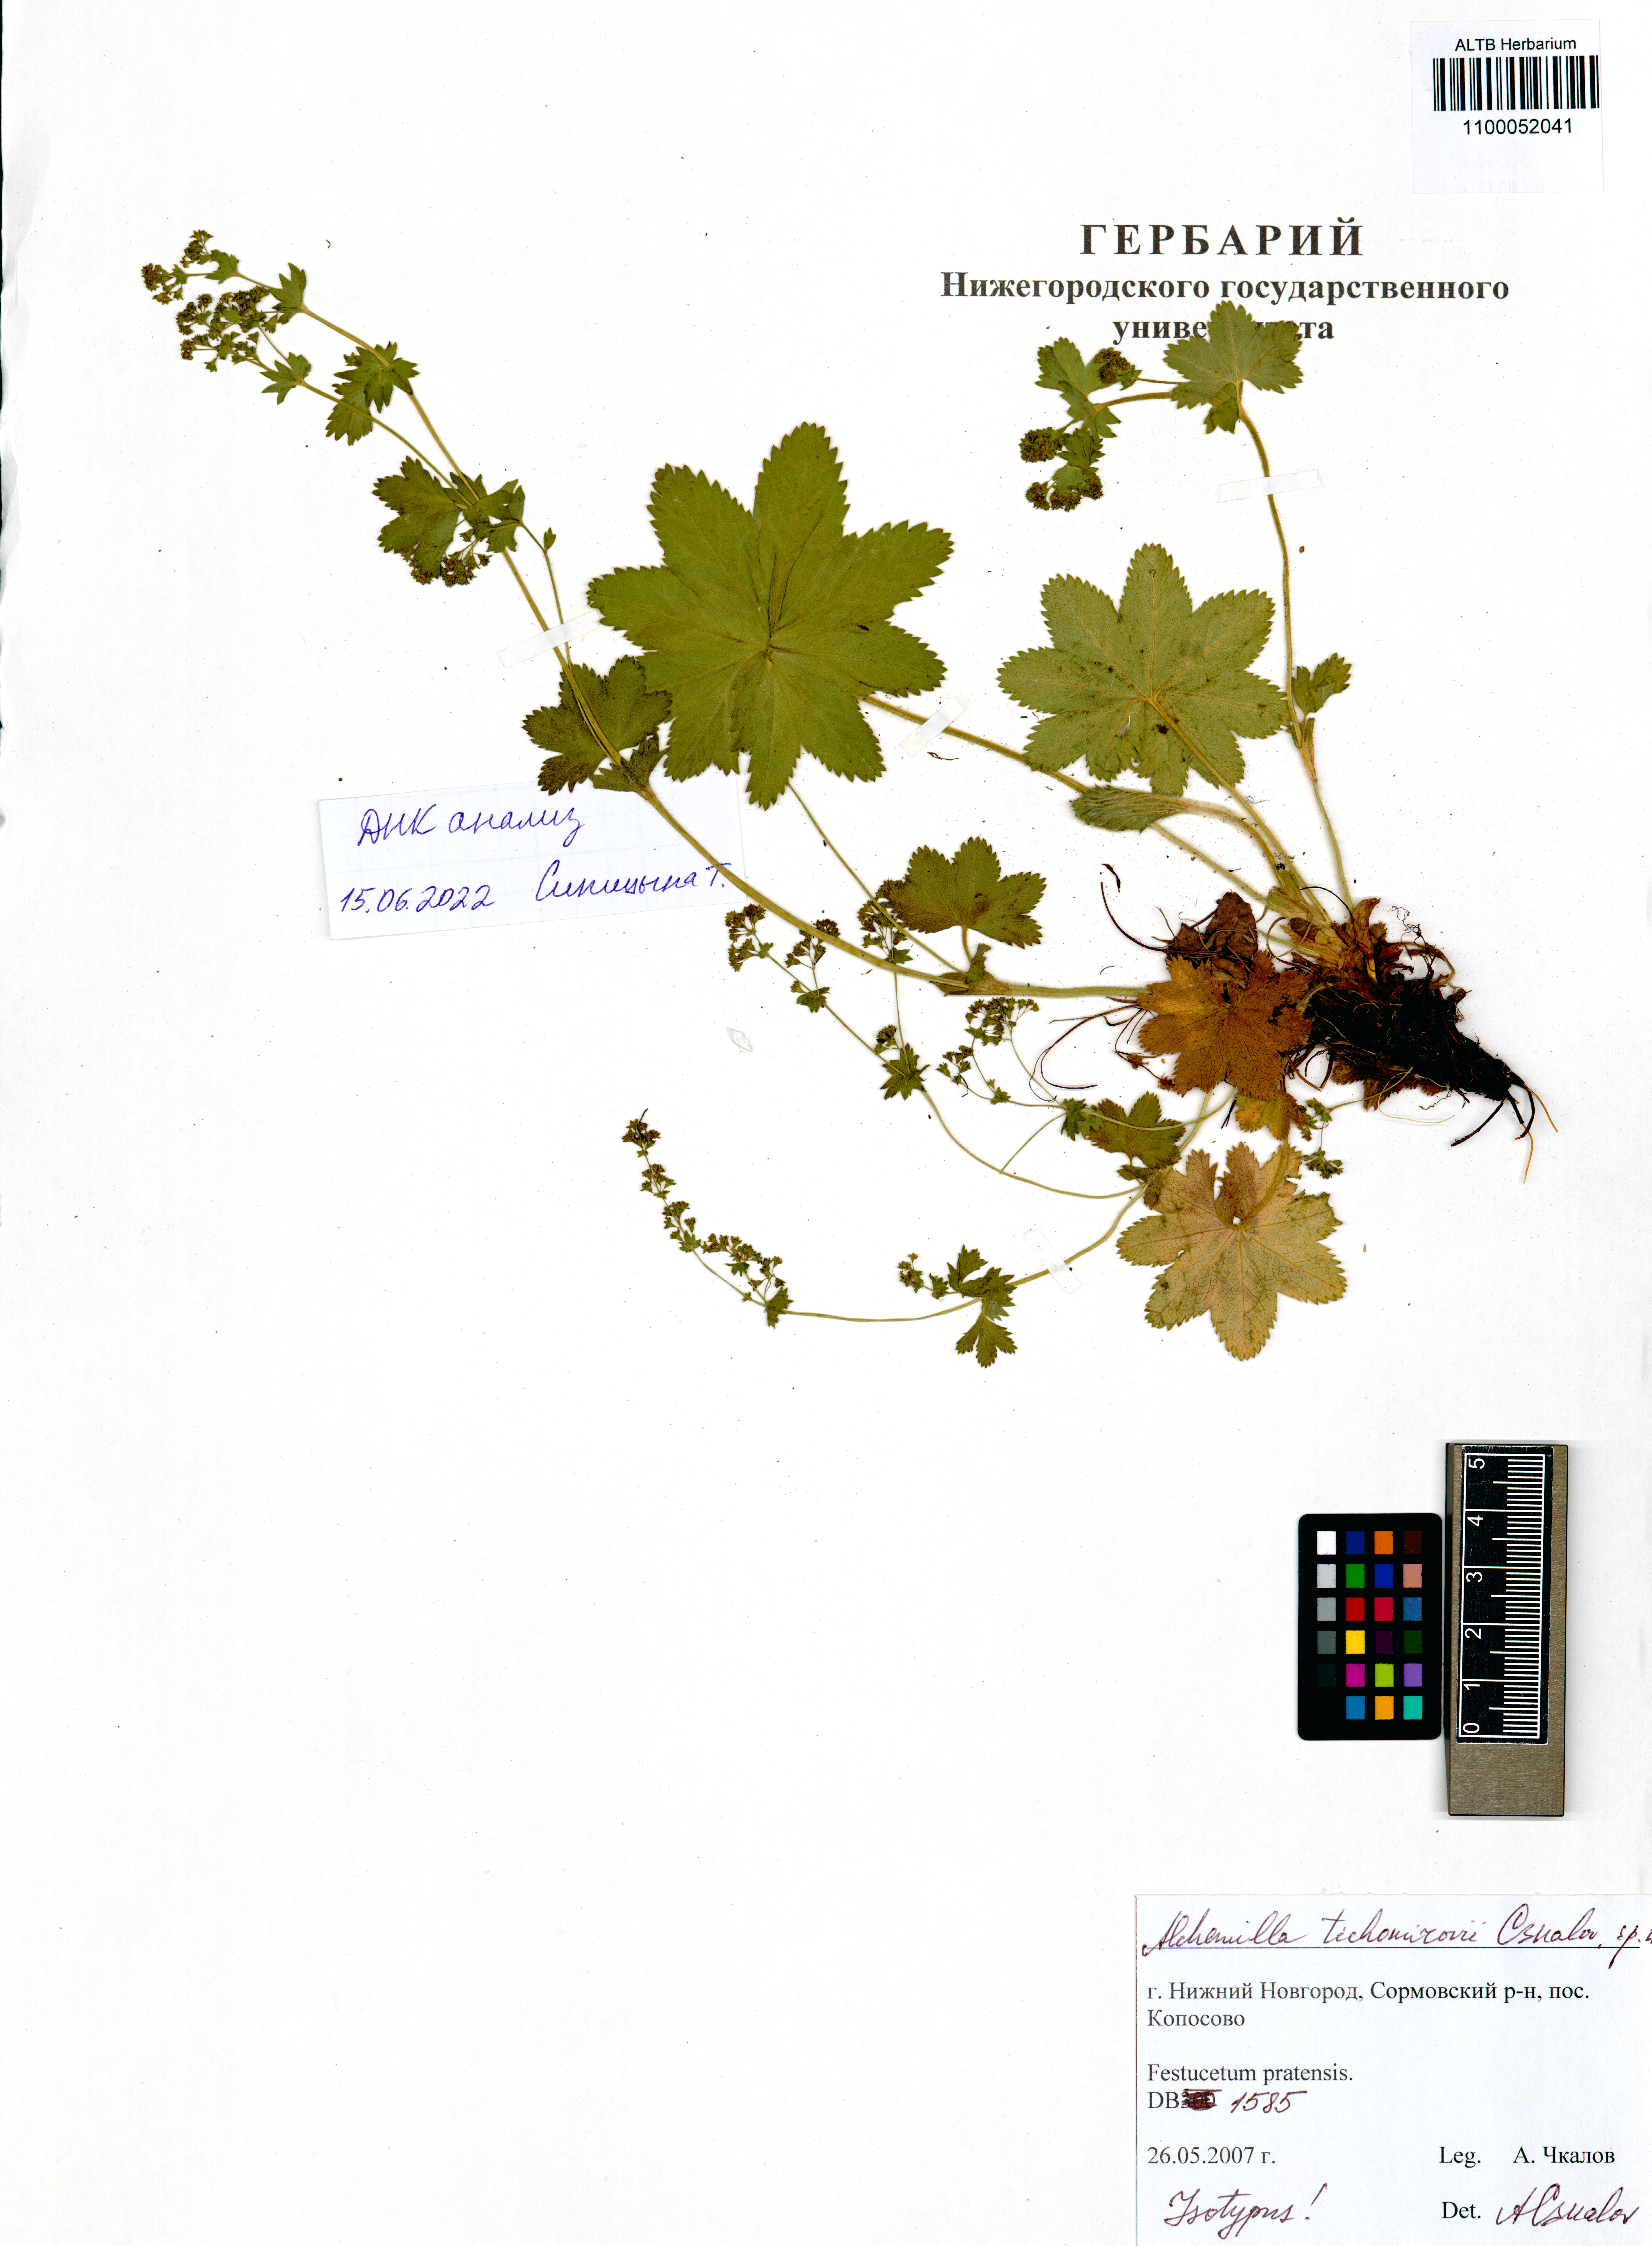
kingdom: Plantae
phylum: Tracheophyta
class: Magnoliopsida
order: Rosales
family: Rosaceae
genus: Alchemilla
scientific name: Alchemilla tichomirovii
